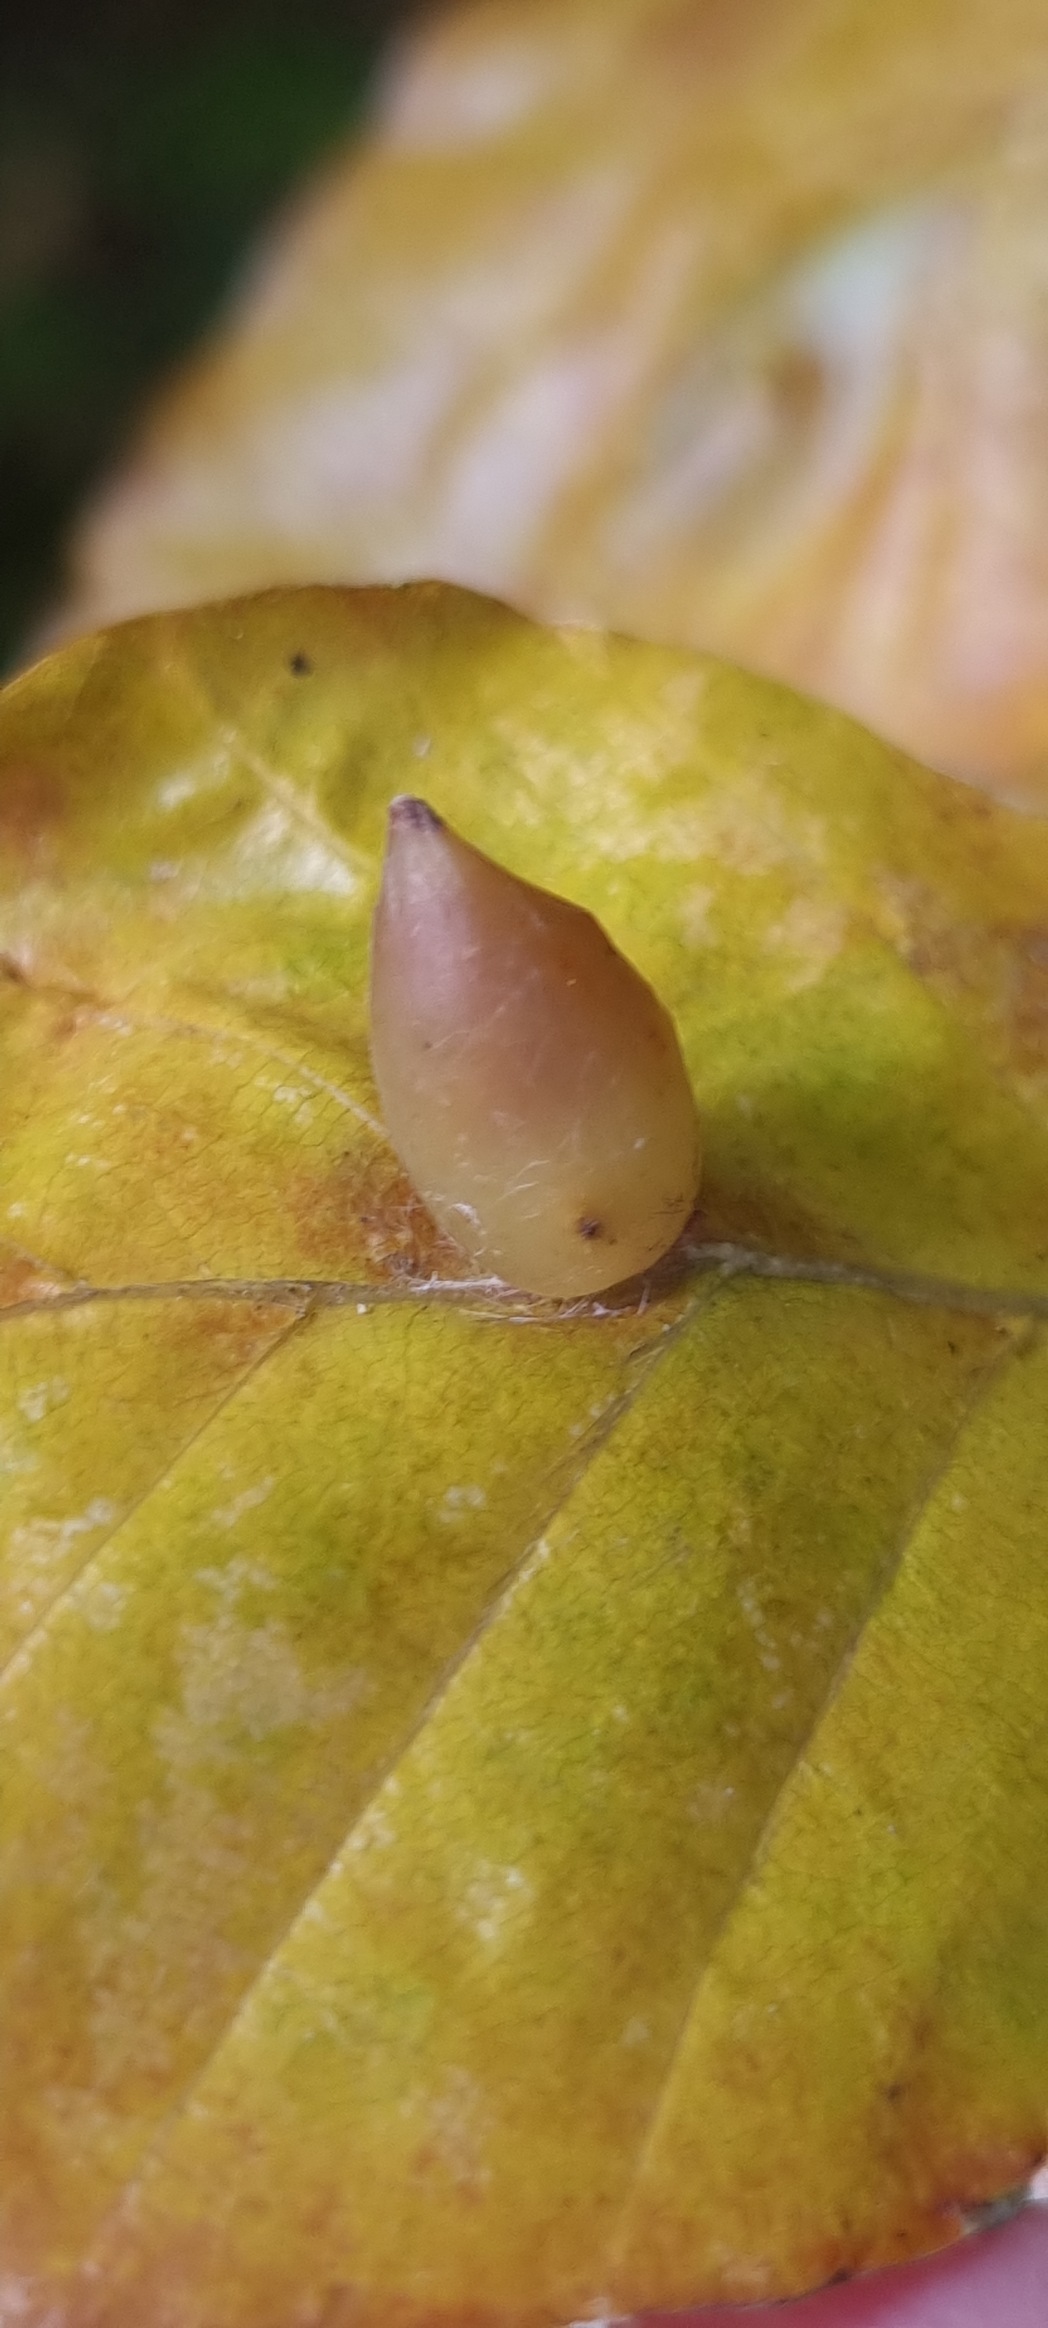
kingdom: Animalia
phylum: Arthropoda
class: Insecta
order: Diptera
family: Cecidomyiidae
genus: Mikiola
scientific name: Mikiola fagi
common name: Bøgegalmyg
